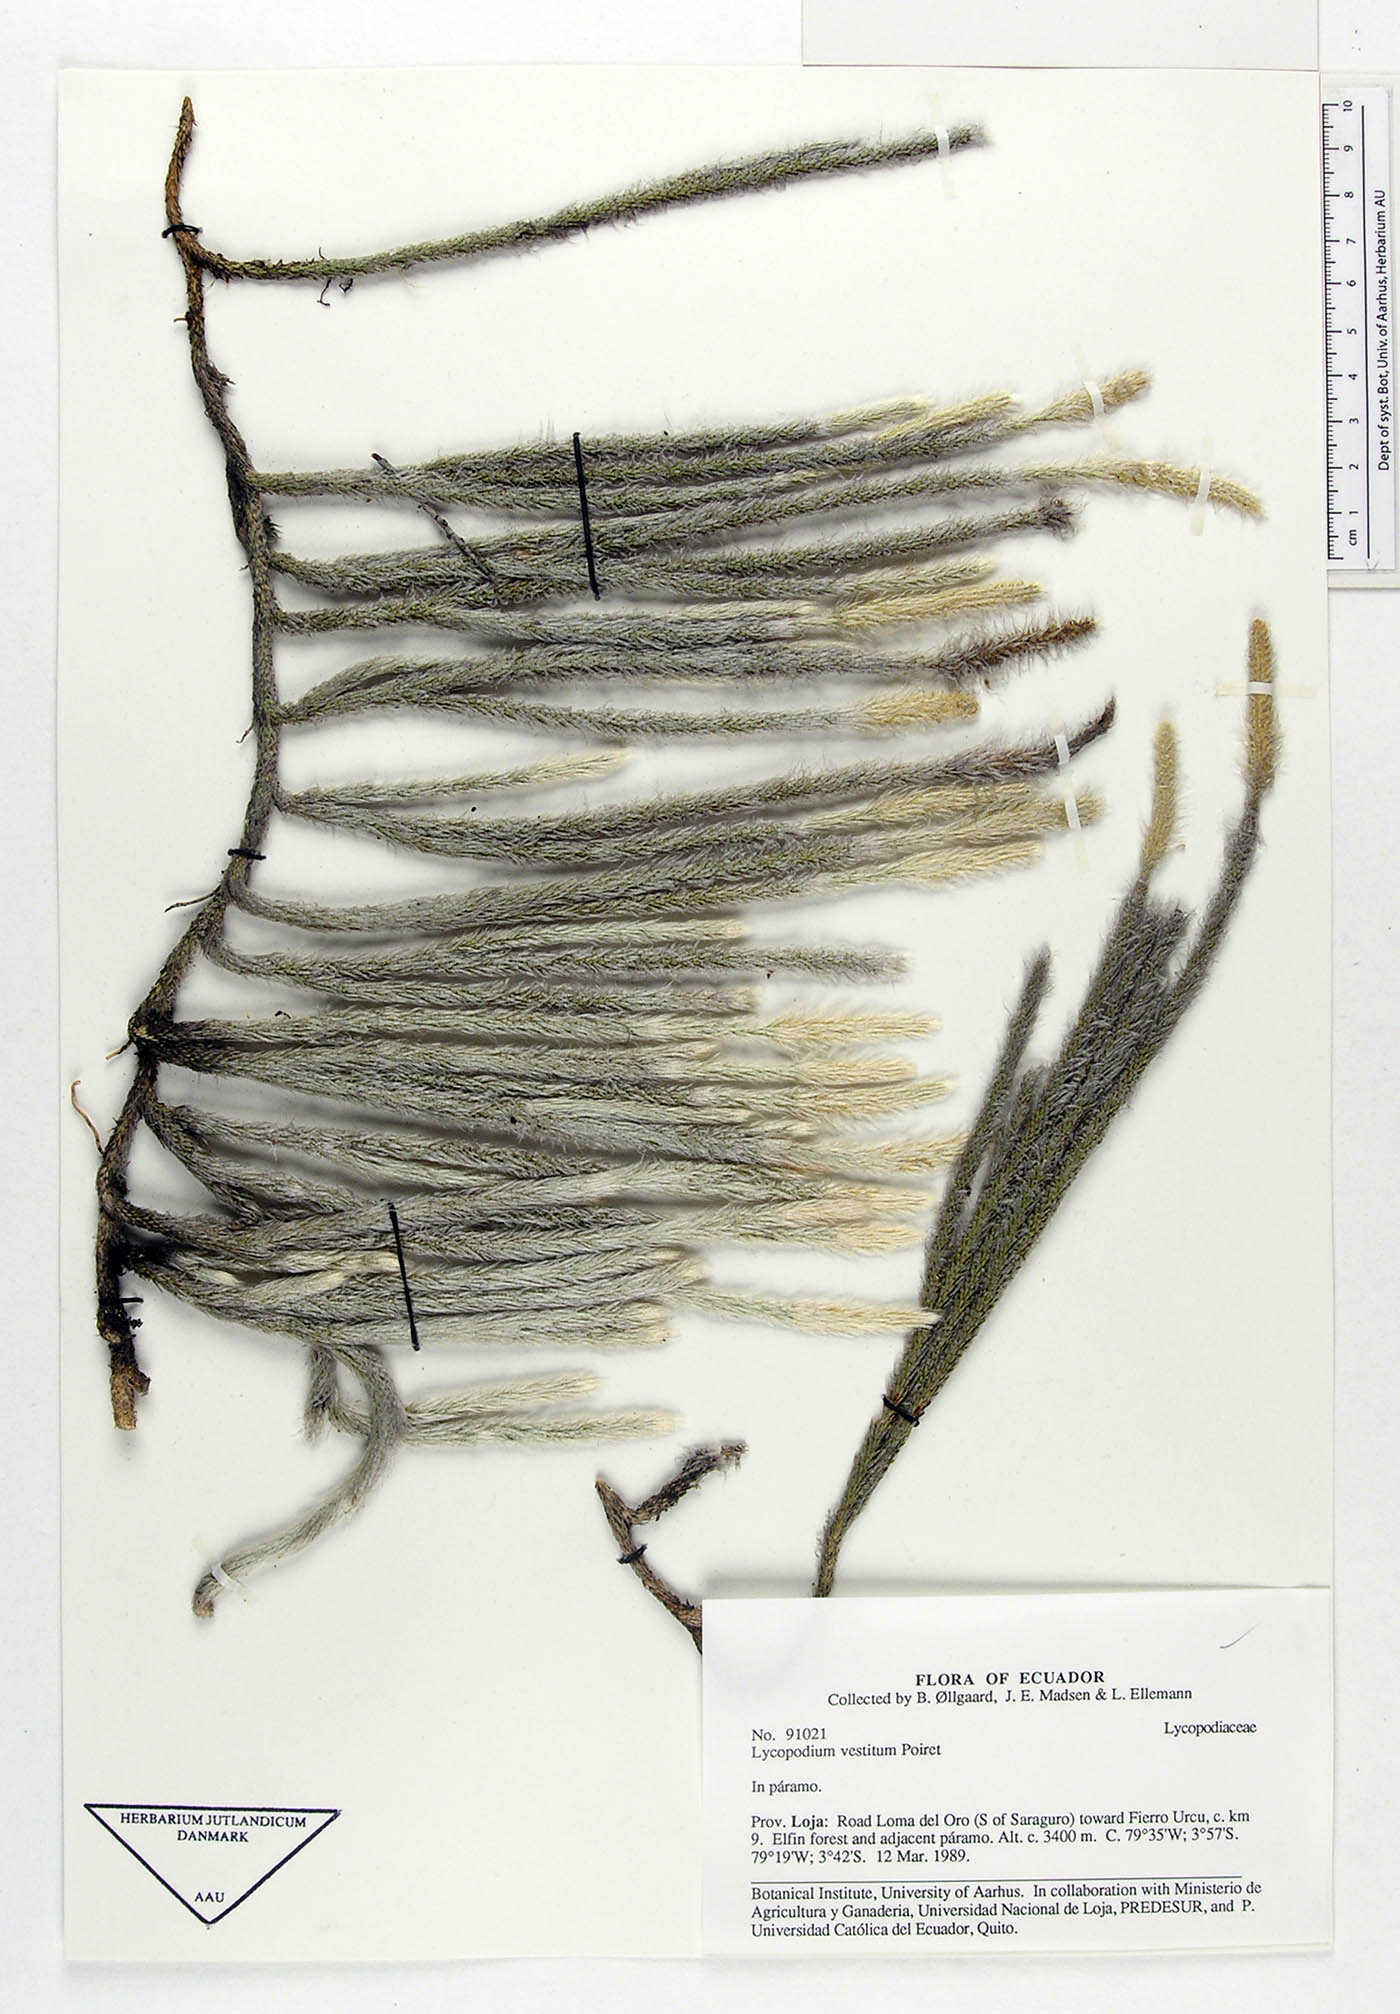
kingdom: Plantae
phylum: Tracheophyta
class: Lycopodiopsida
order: Lycopodiales
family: Lycopodiaceae
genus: Lycopodium
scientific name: Lycopodium vestitum
